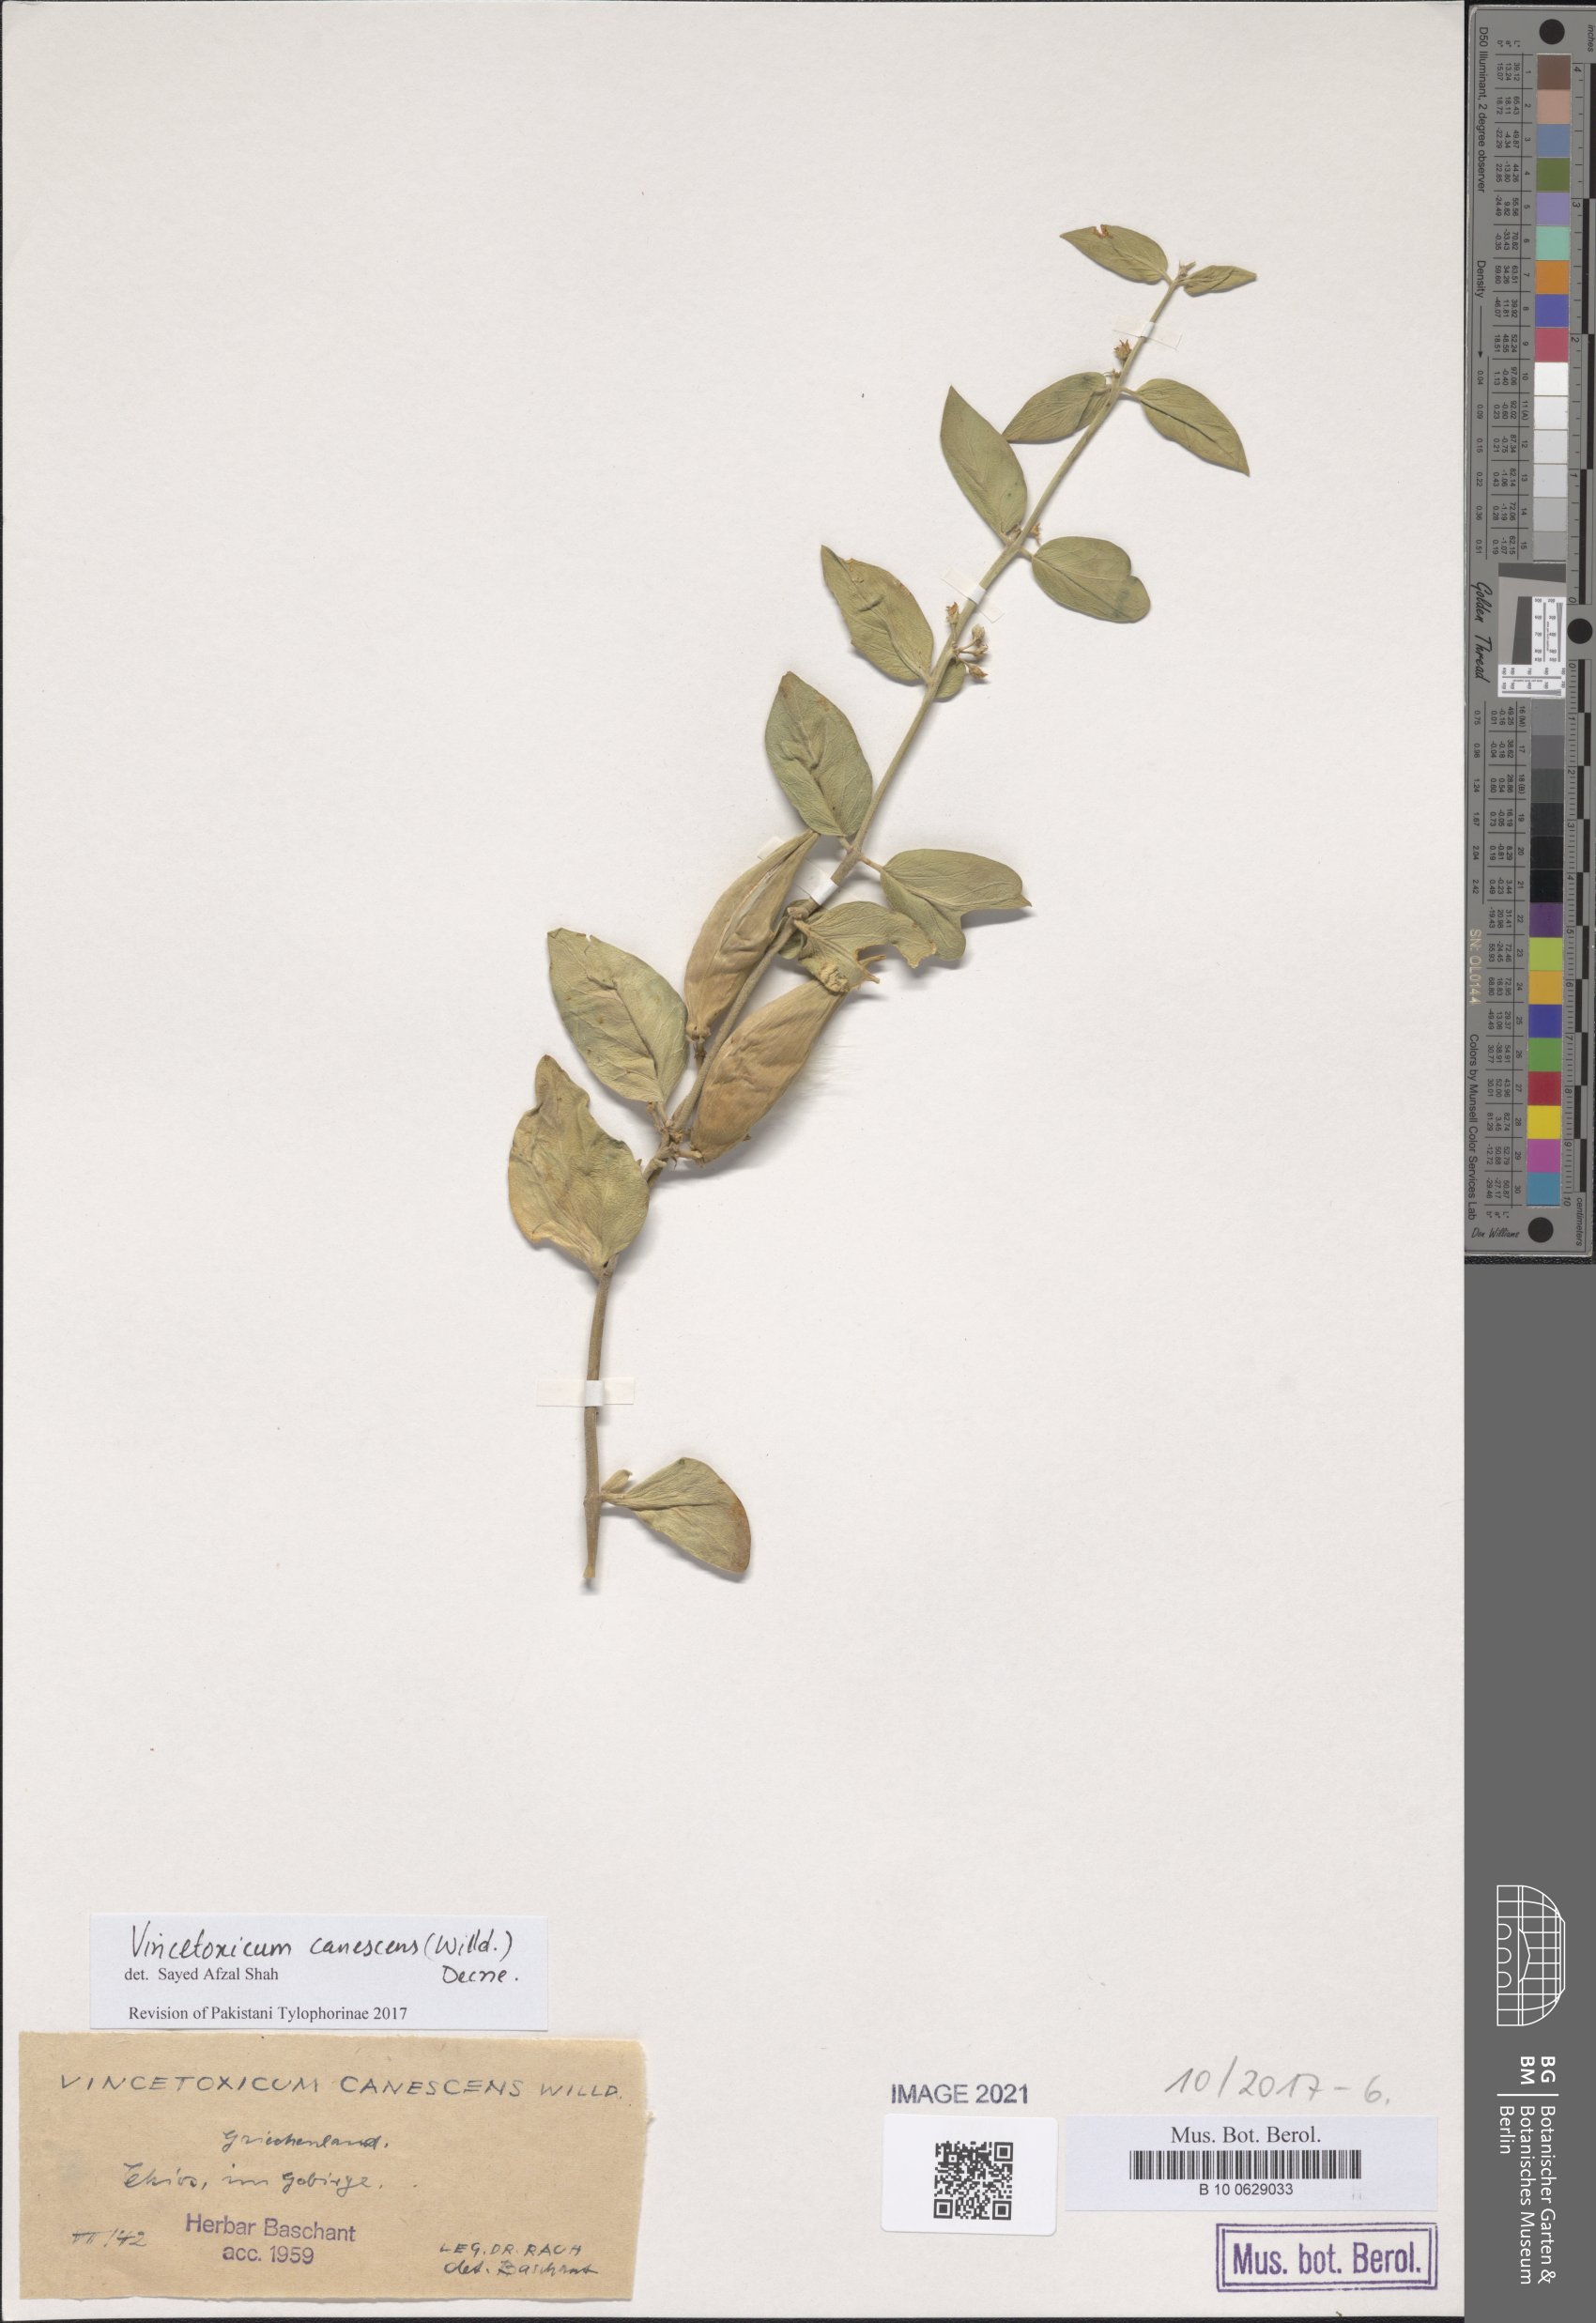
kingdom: Plantae
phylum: Tracheophyta
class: Magnoliopsida
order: Gentianales
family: Apocynaceae
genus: Vincetoxicum
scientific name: Vincetoxicum canescens
